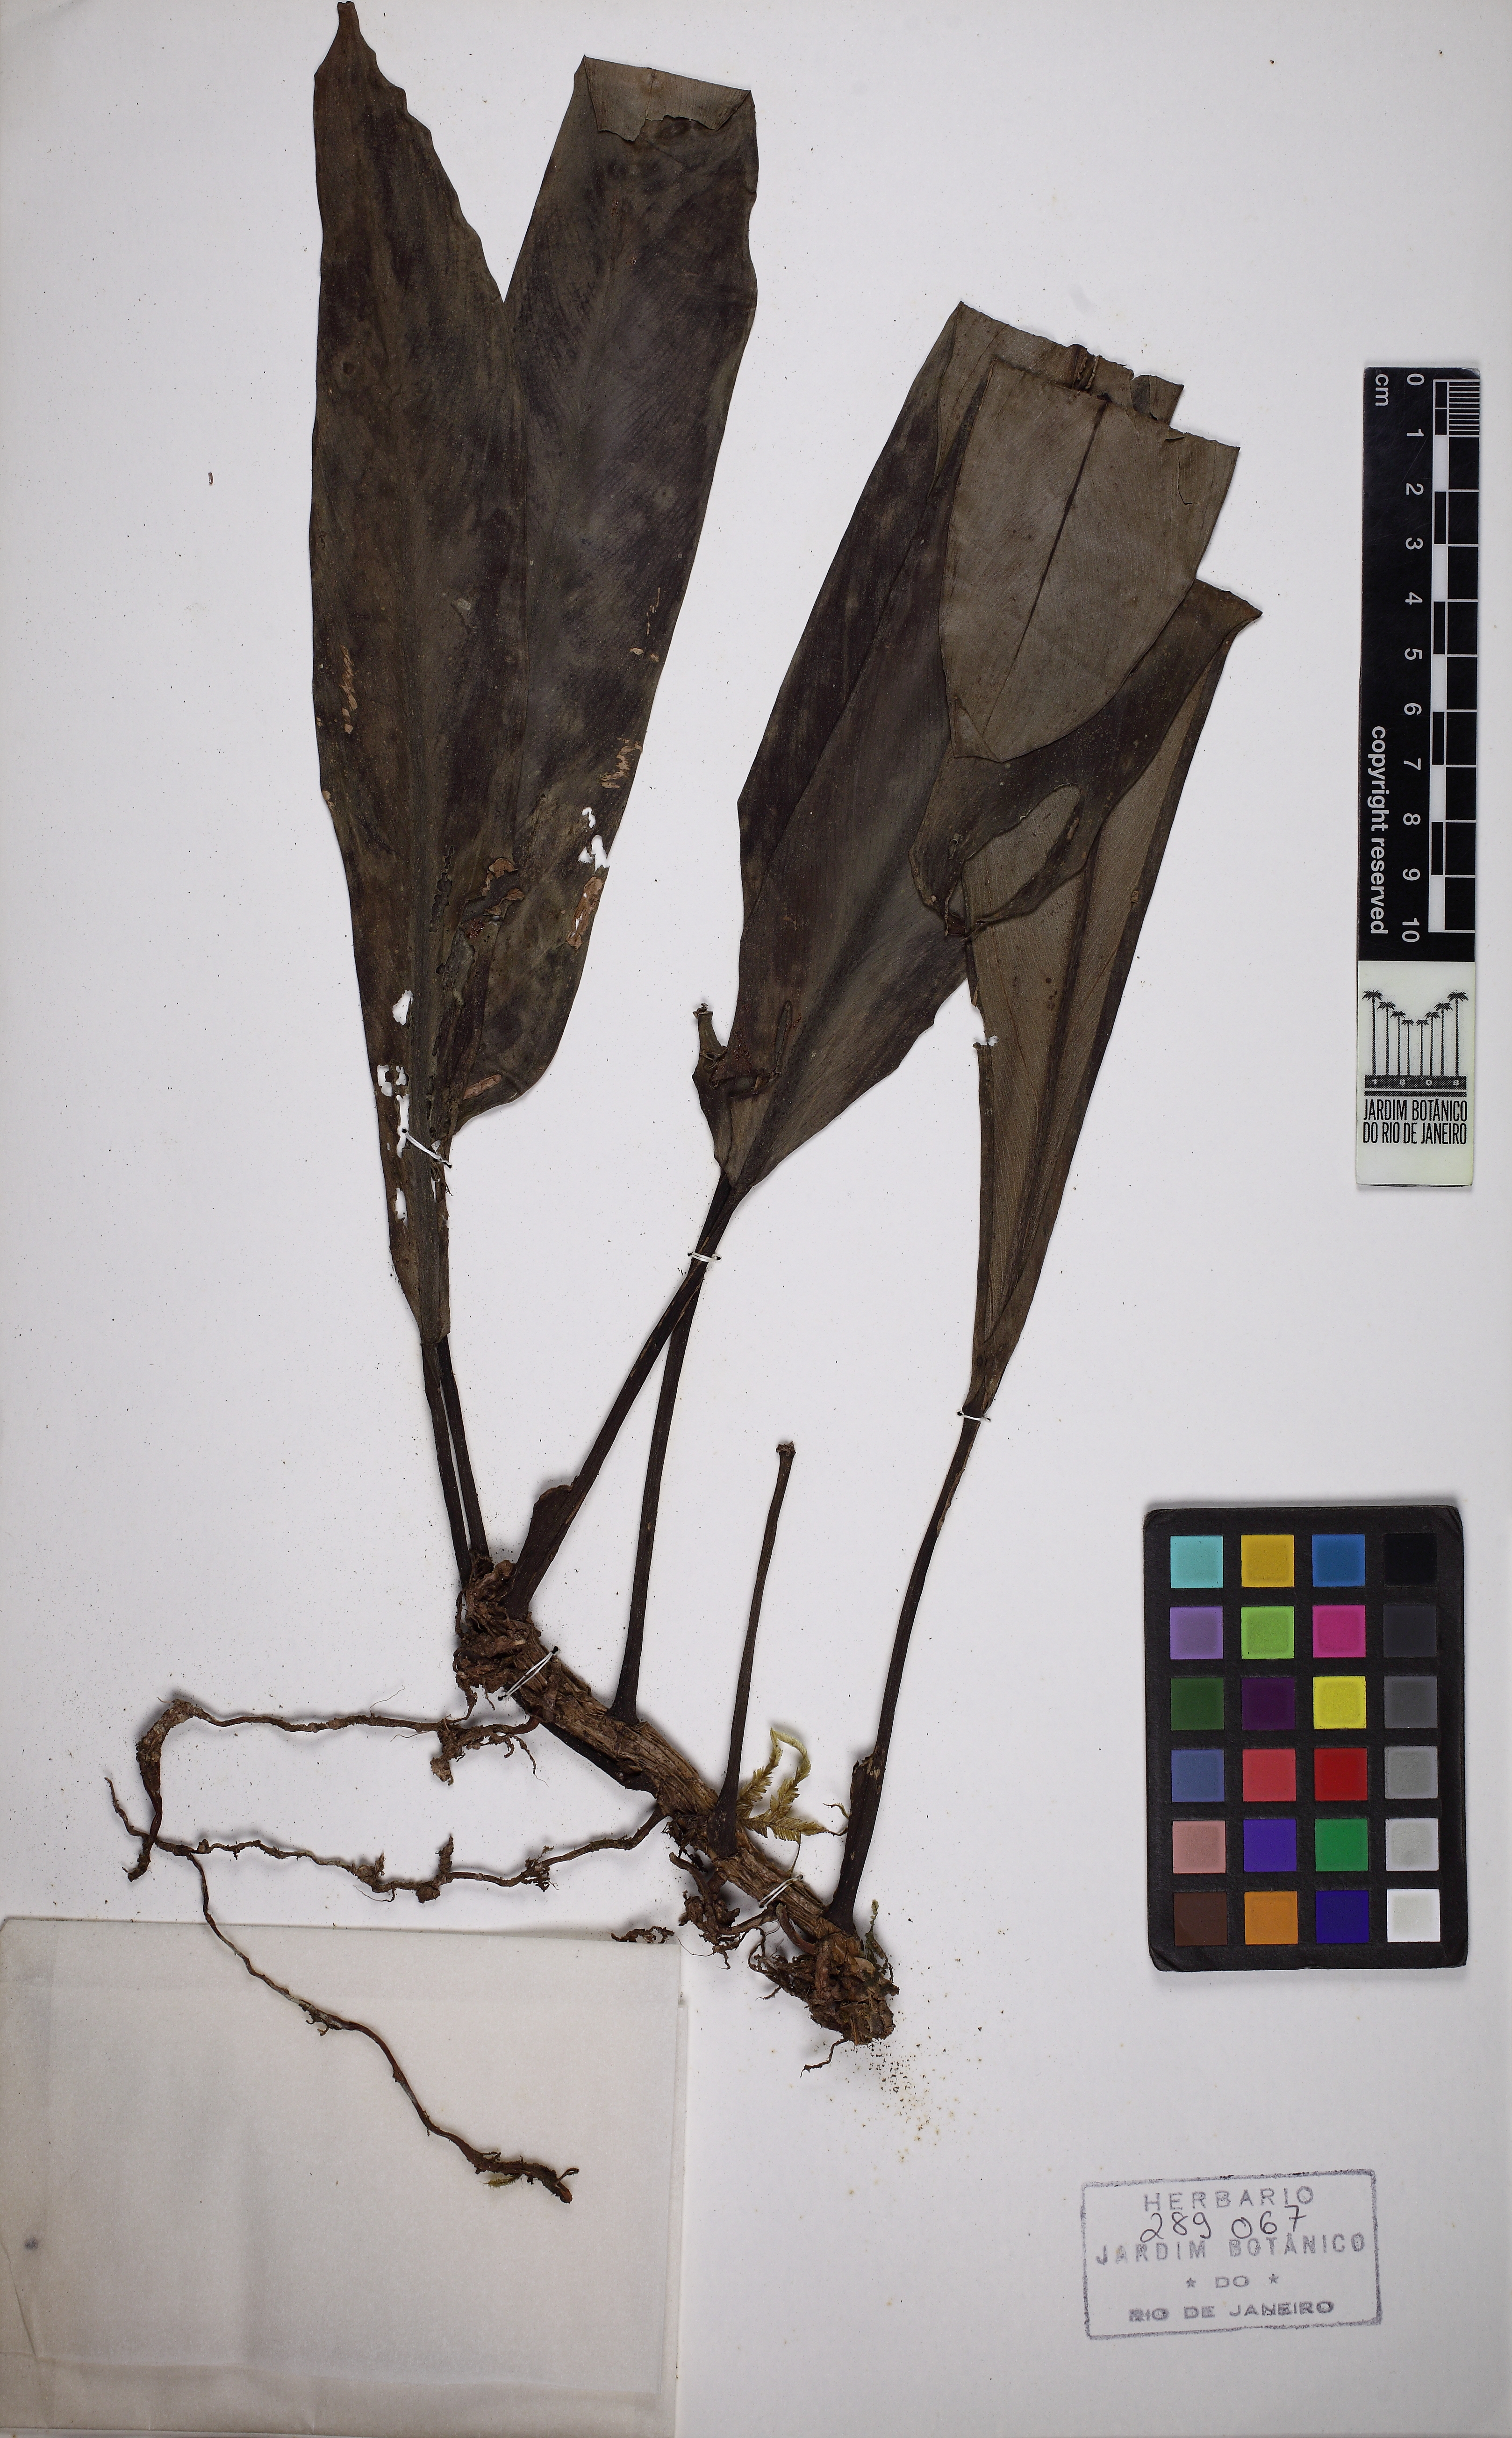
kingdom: Plantae
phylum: Tracheophyta
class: Liliopsida
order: Alismatales
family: Araceae
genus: Philodendron
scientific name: Philodendron hatschbachii
